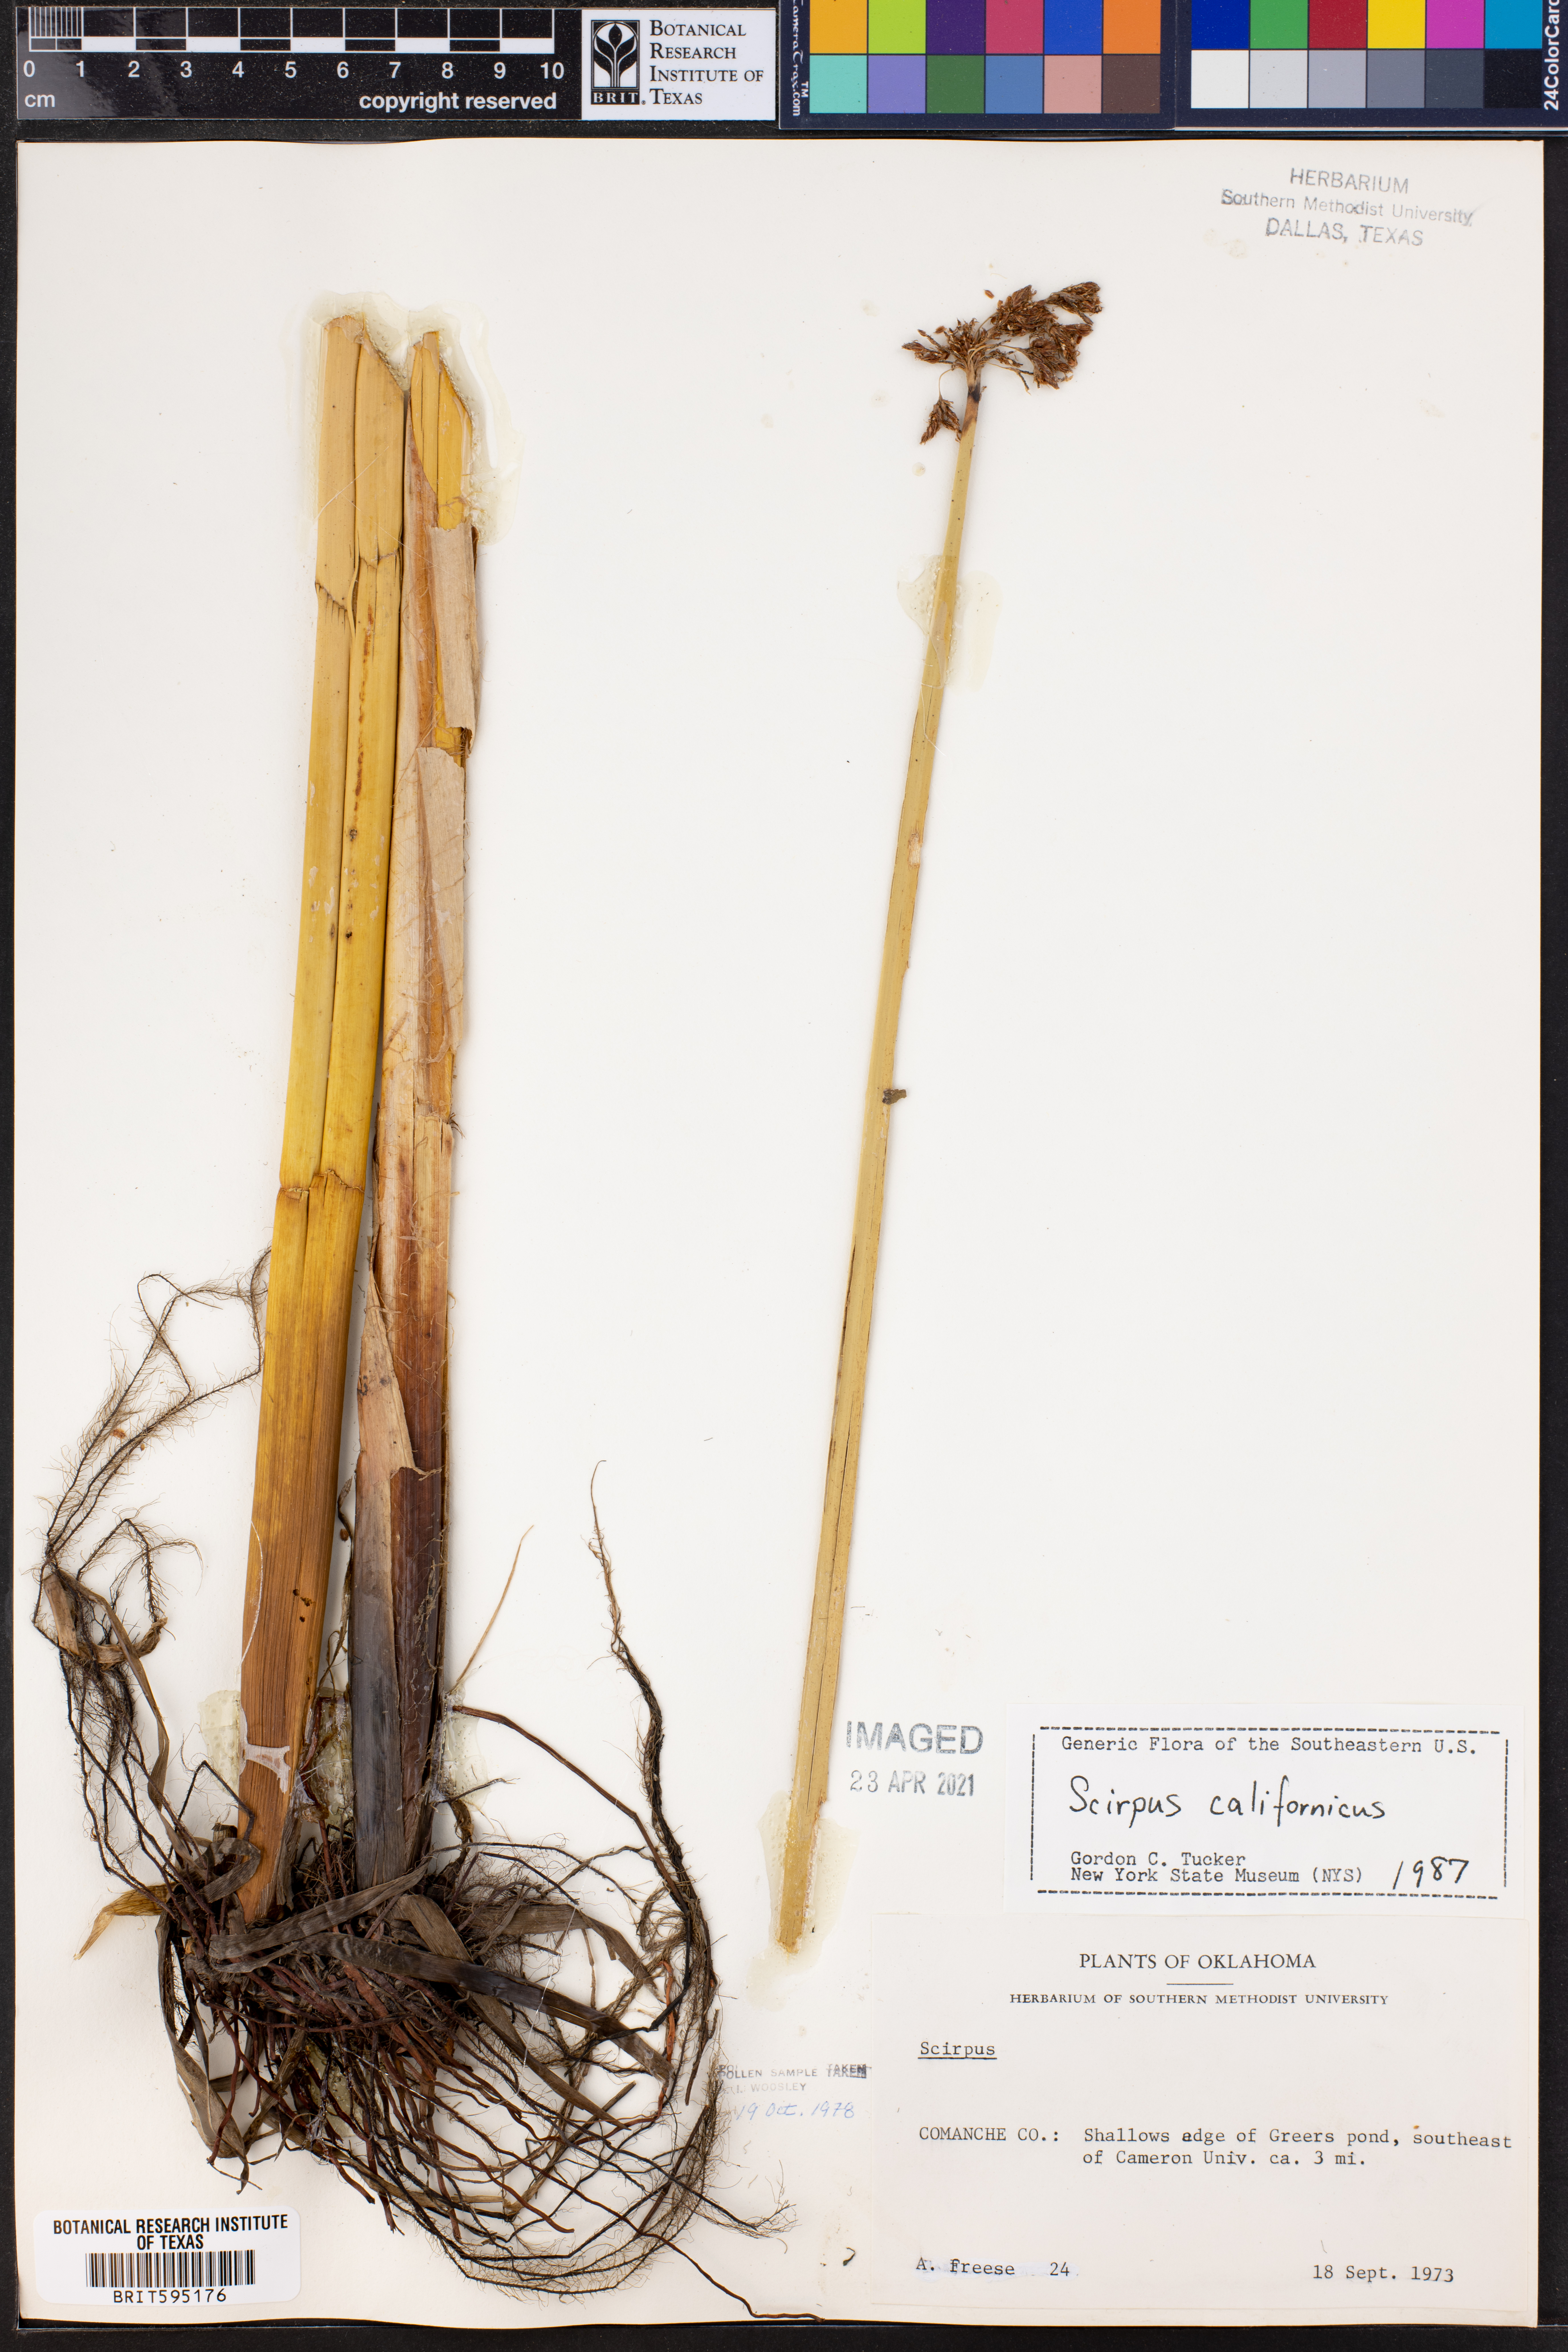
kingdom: Plantae
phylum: Tracheophyta
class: Liliopsida
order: Poales
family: Cyperaceae
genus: Schoenoplectus
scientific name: Schoenoplectus californicus
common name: California bulrush
